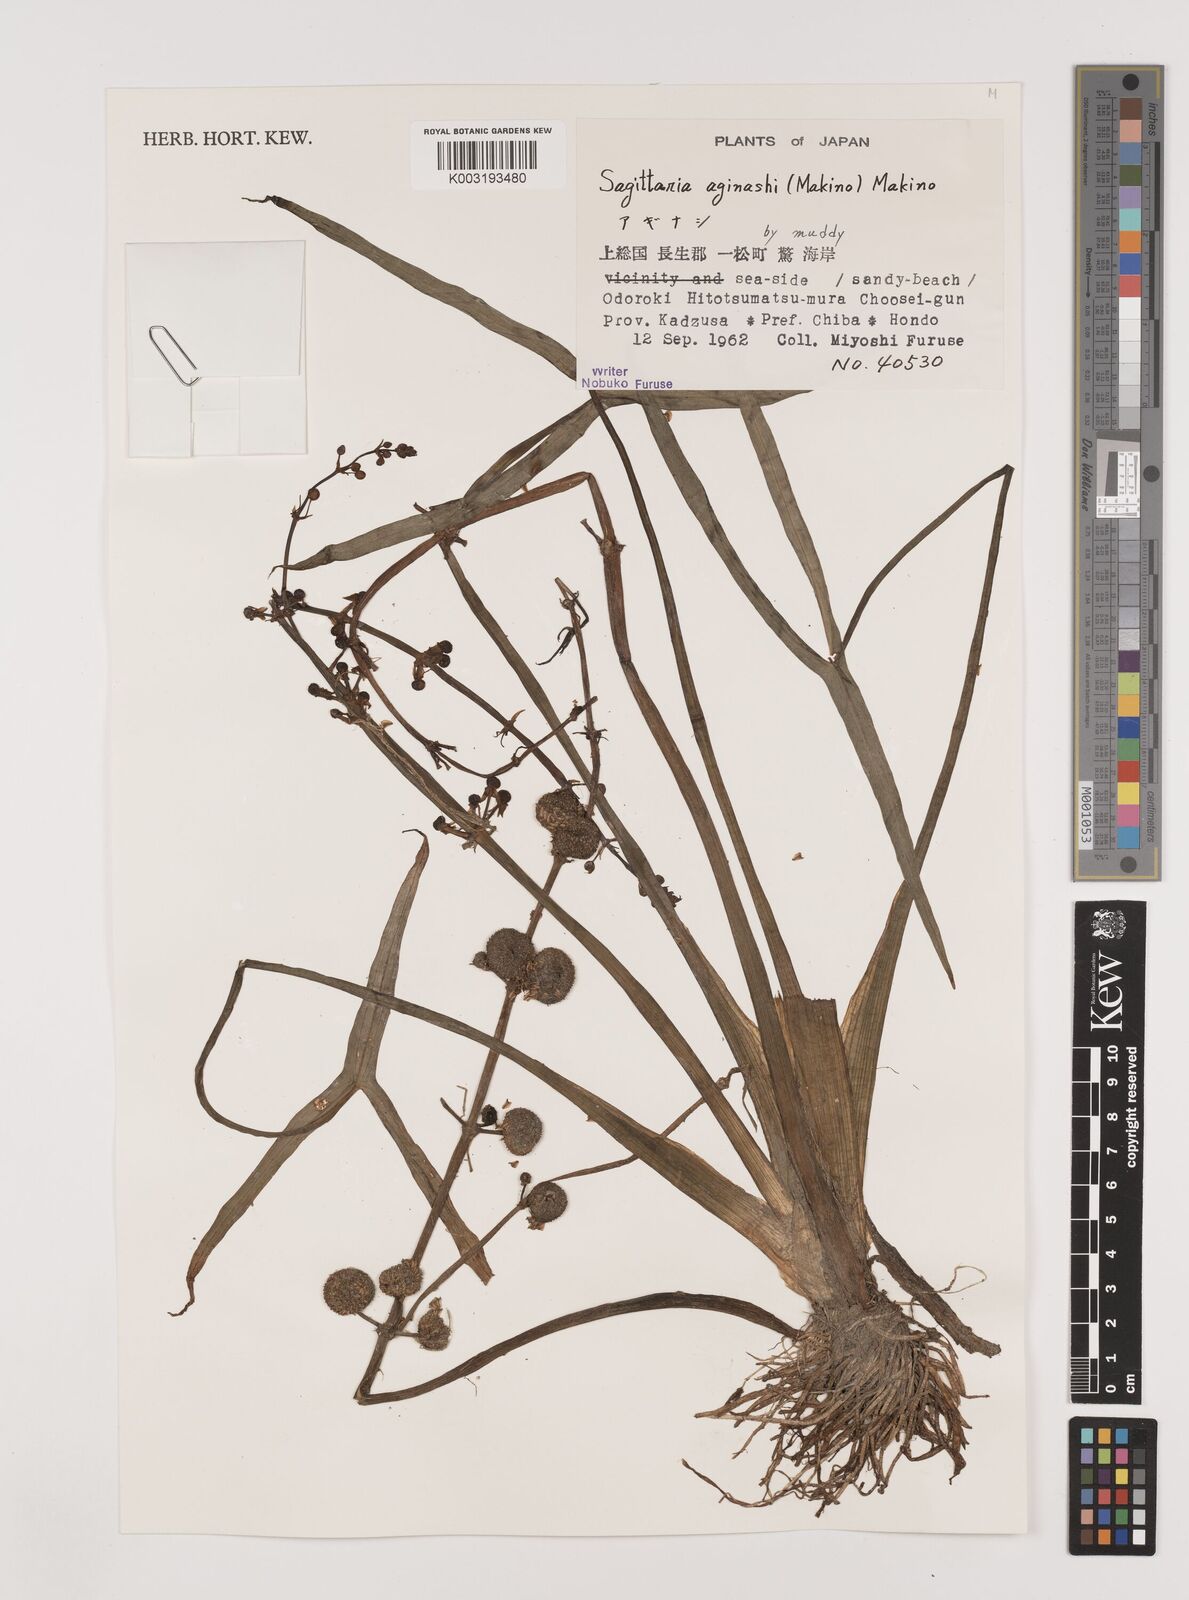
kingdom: Plantae
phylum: Tracheophyta
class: Liliopsida
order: Alismatales
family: Alismataceae
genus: Sagittaria
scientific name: Sagittaria aginashi
